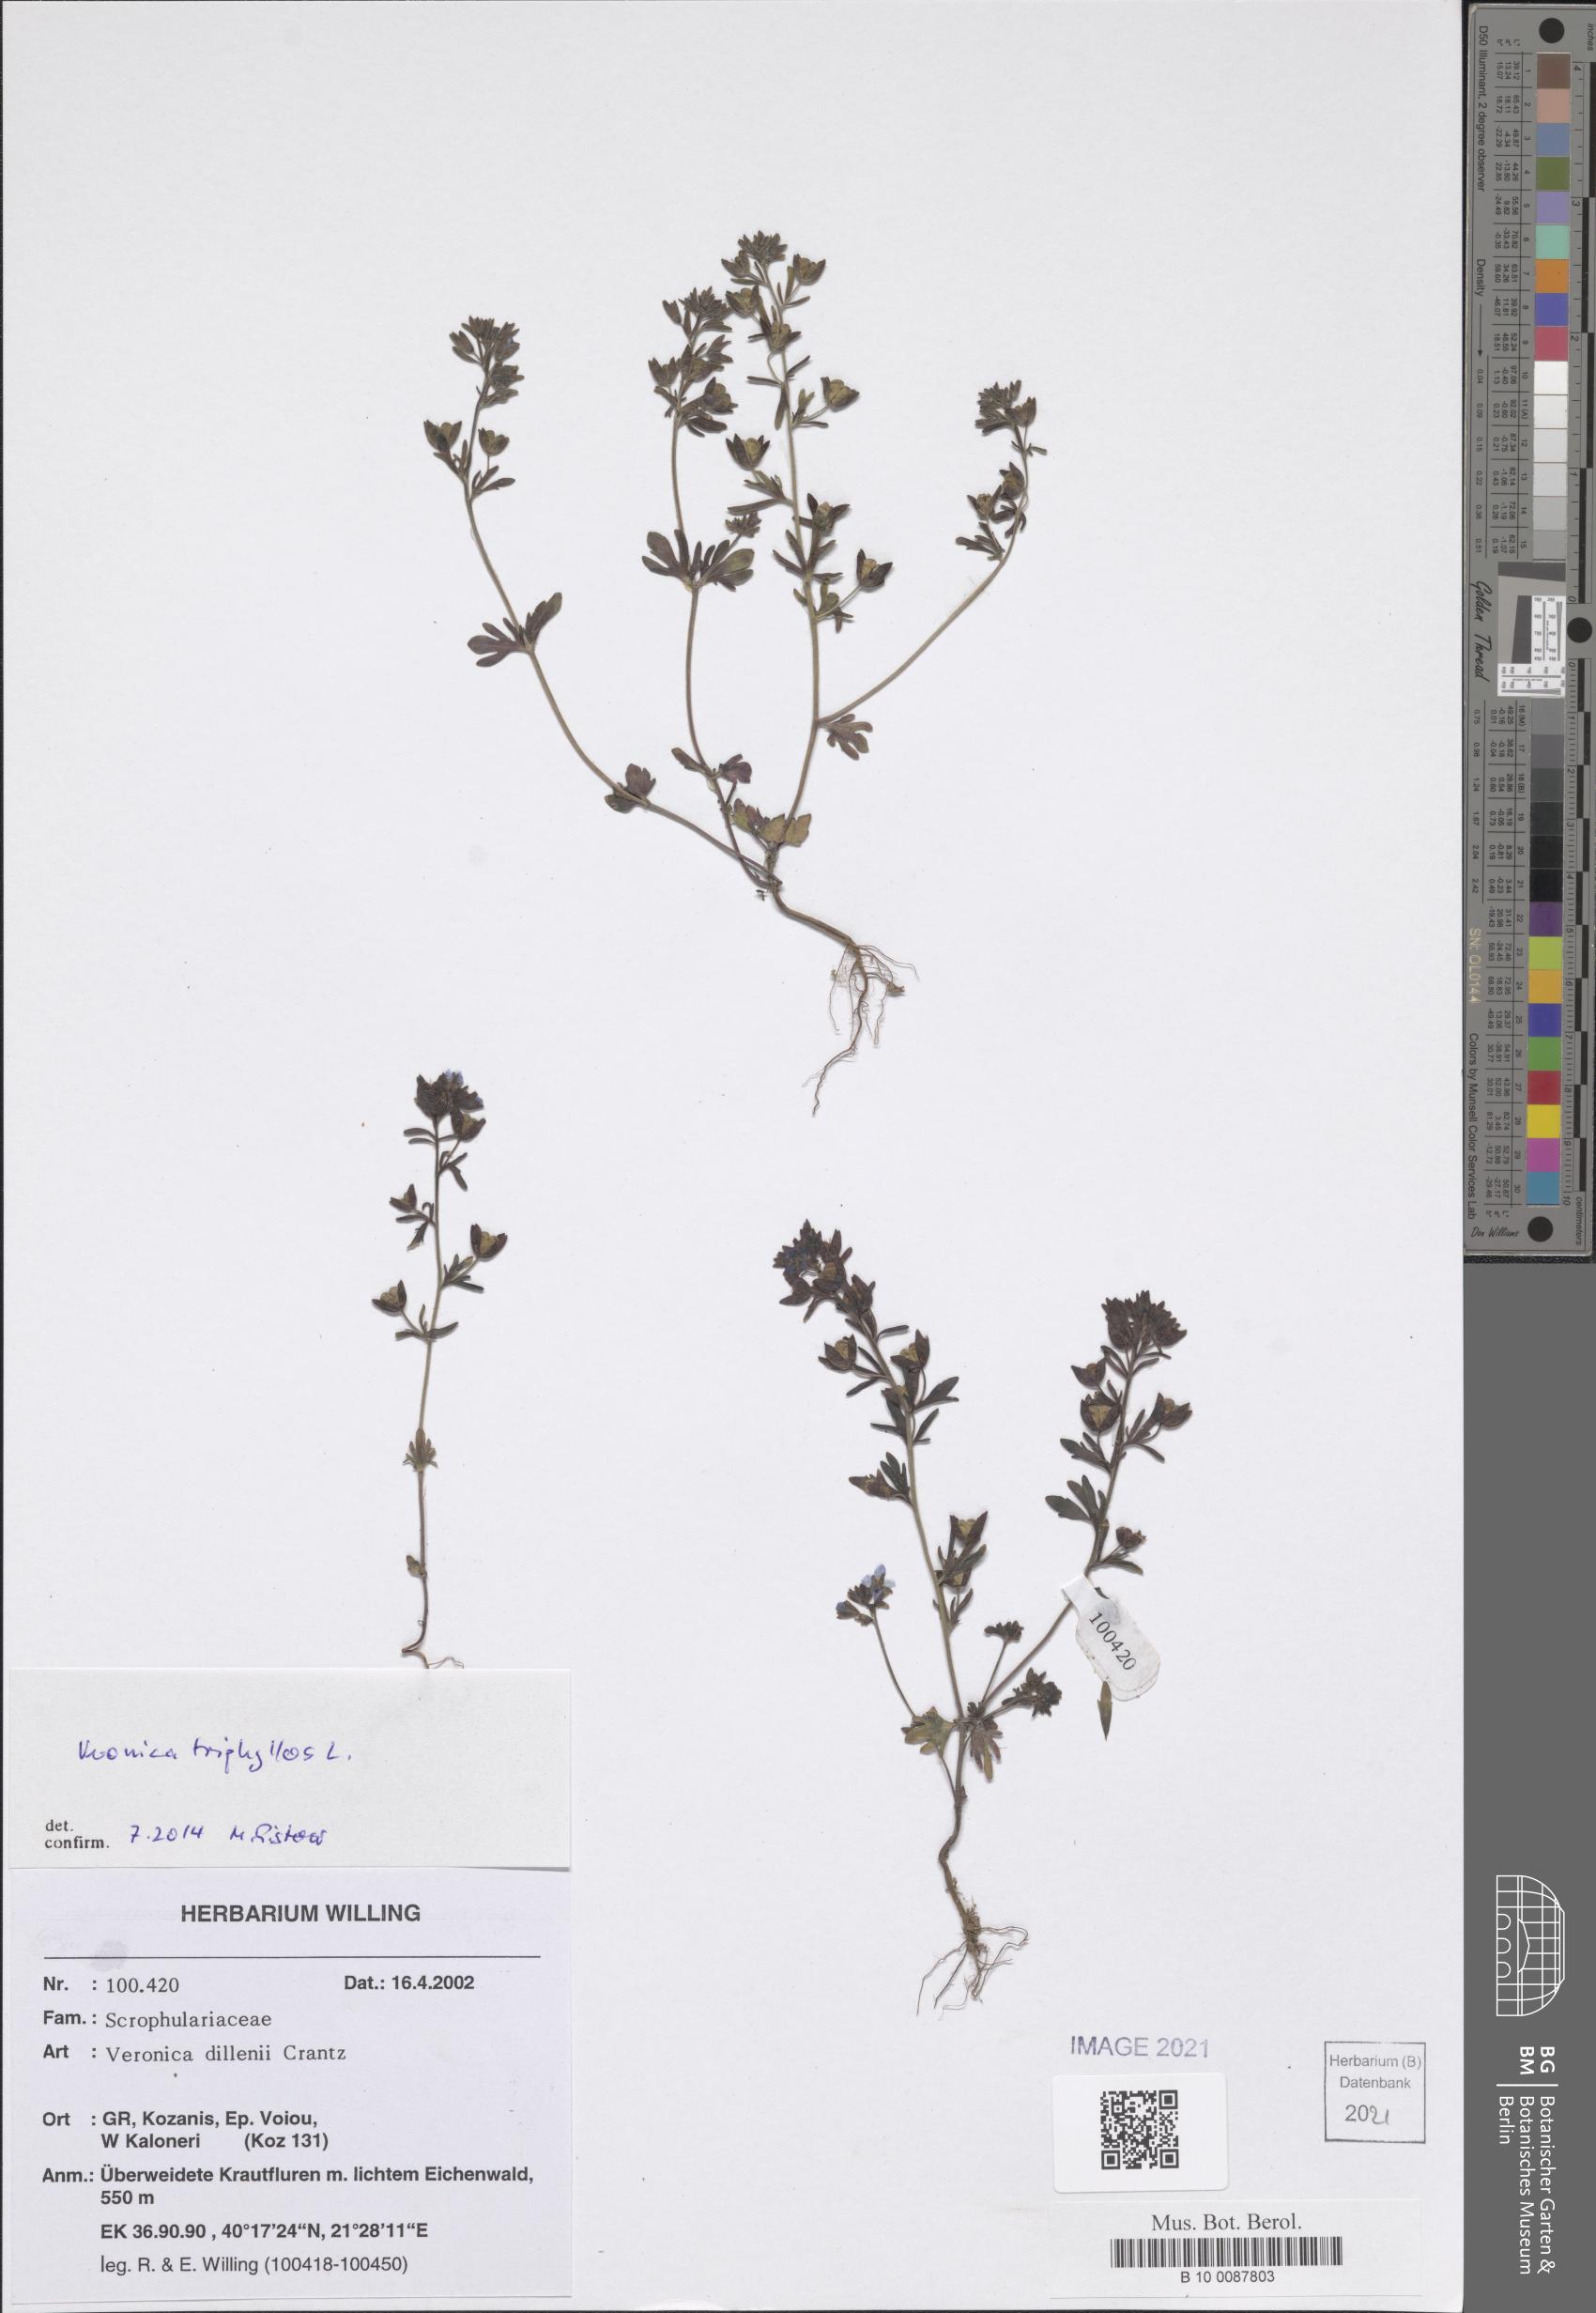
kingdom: Plantae
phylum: Tracheophyta
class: Magnoliopsida
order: Lamiales
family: Plantaginaceae
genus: Veronica
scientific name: Veronica triphyllos
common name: Fingered speedwell
